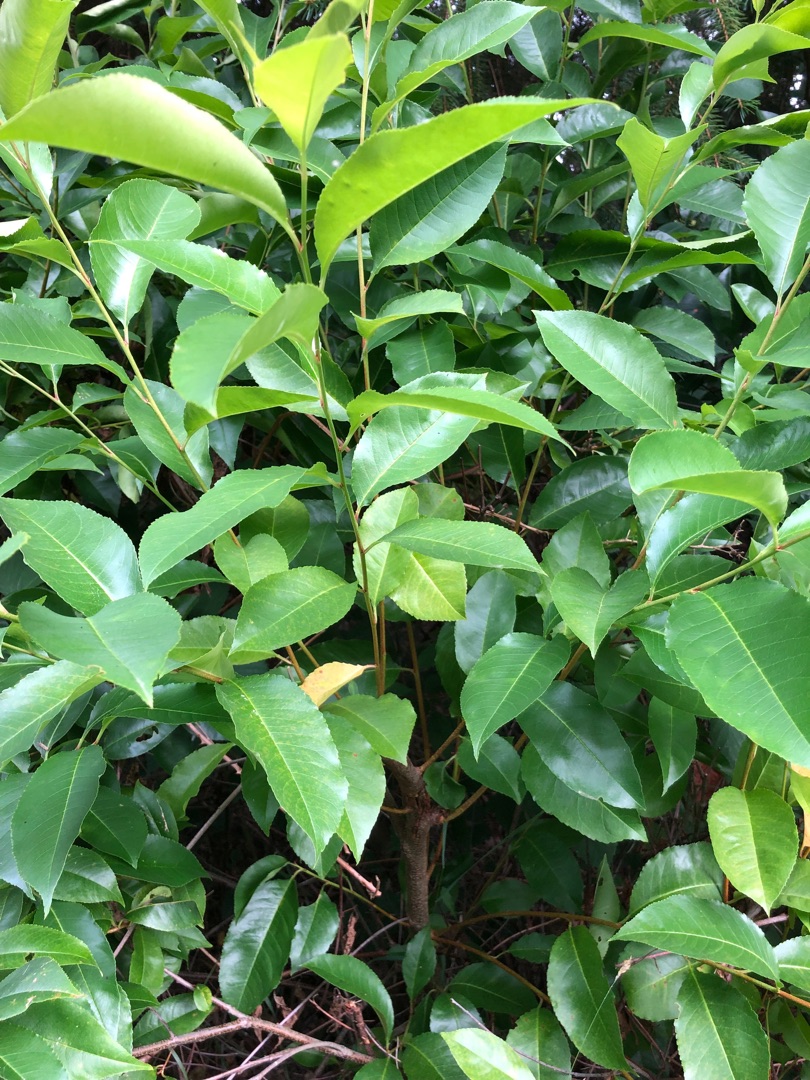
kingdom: Plantae
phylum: Tracheophyta
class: Magnoliopsida
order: Rosales
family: Rosaceae
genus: Prunus
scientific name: Prunus serotina
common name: Glansbladet hæg
